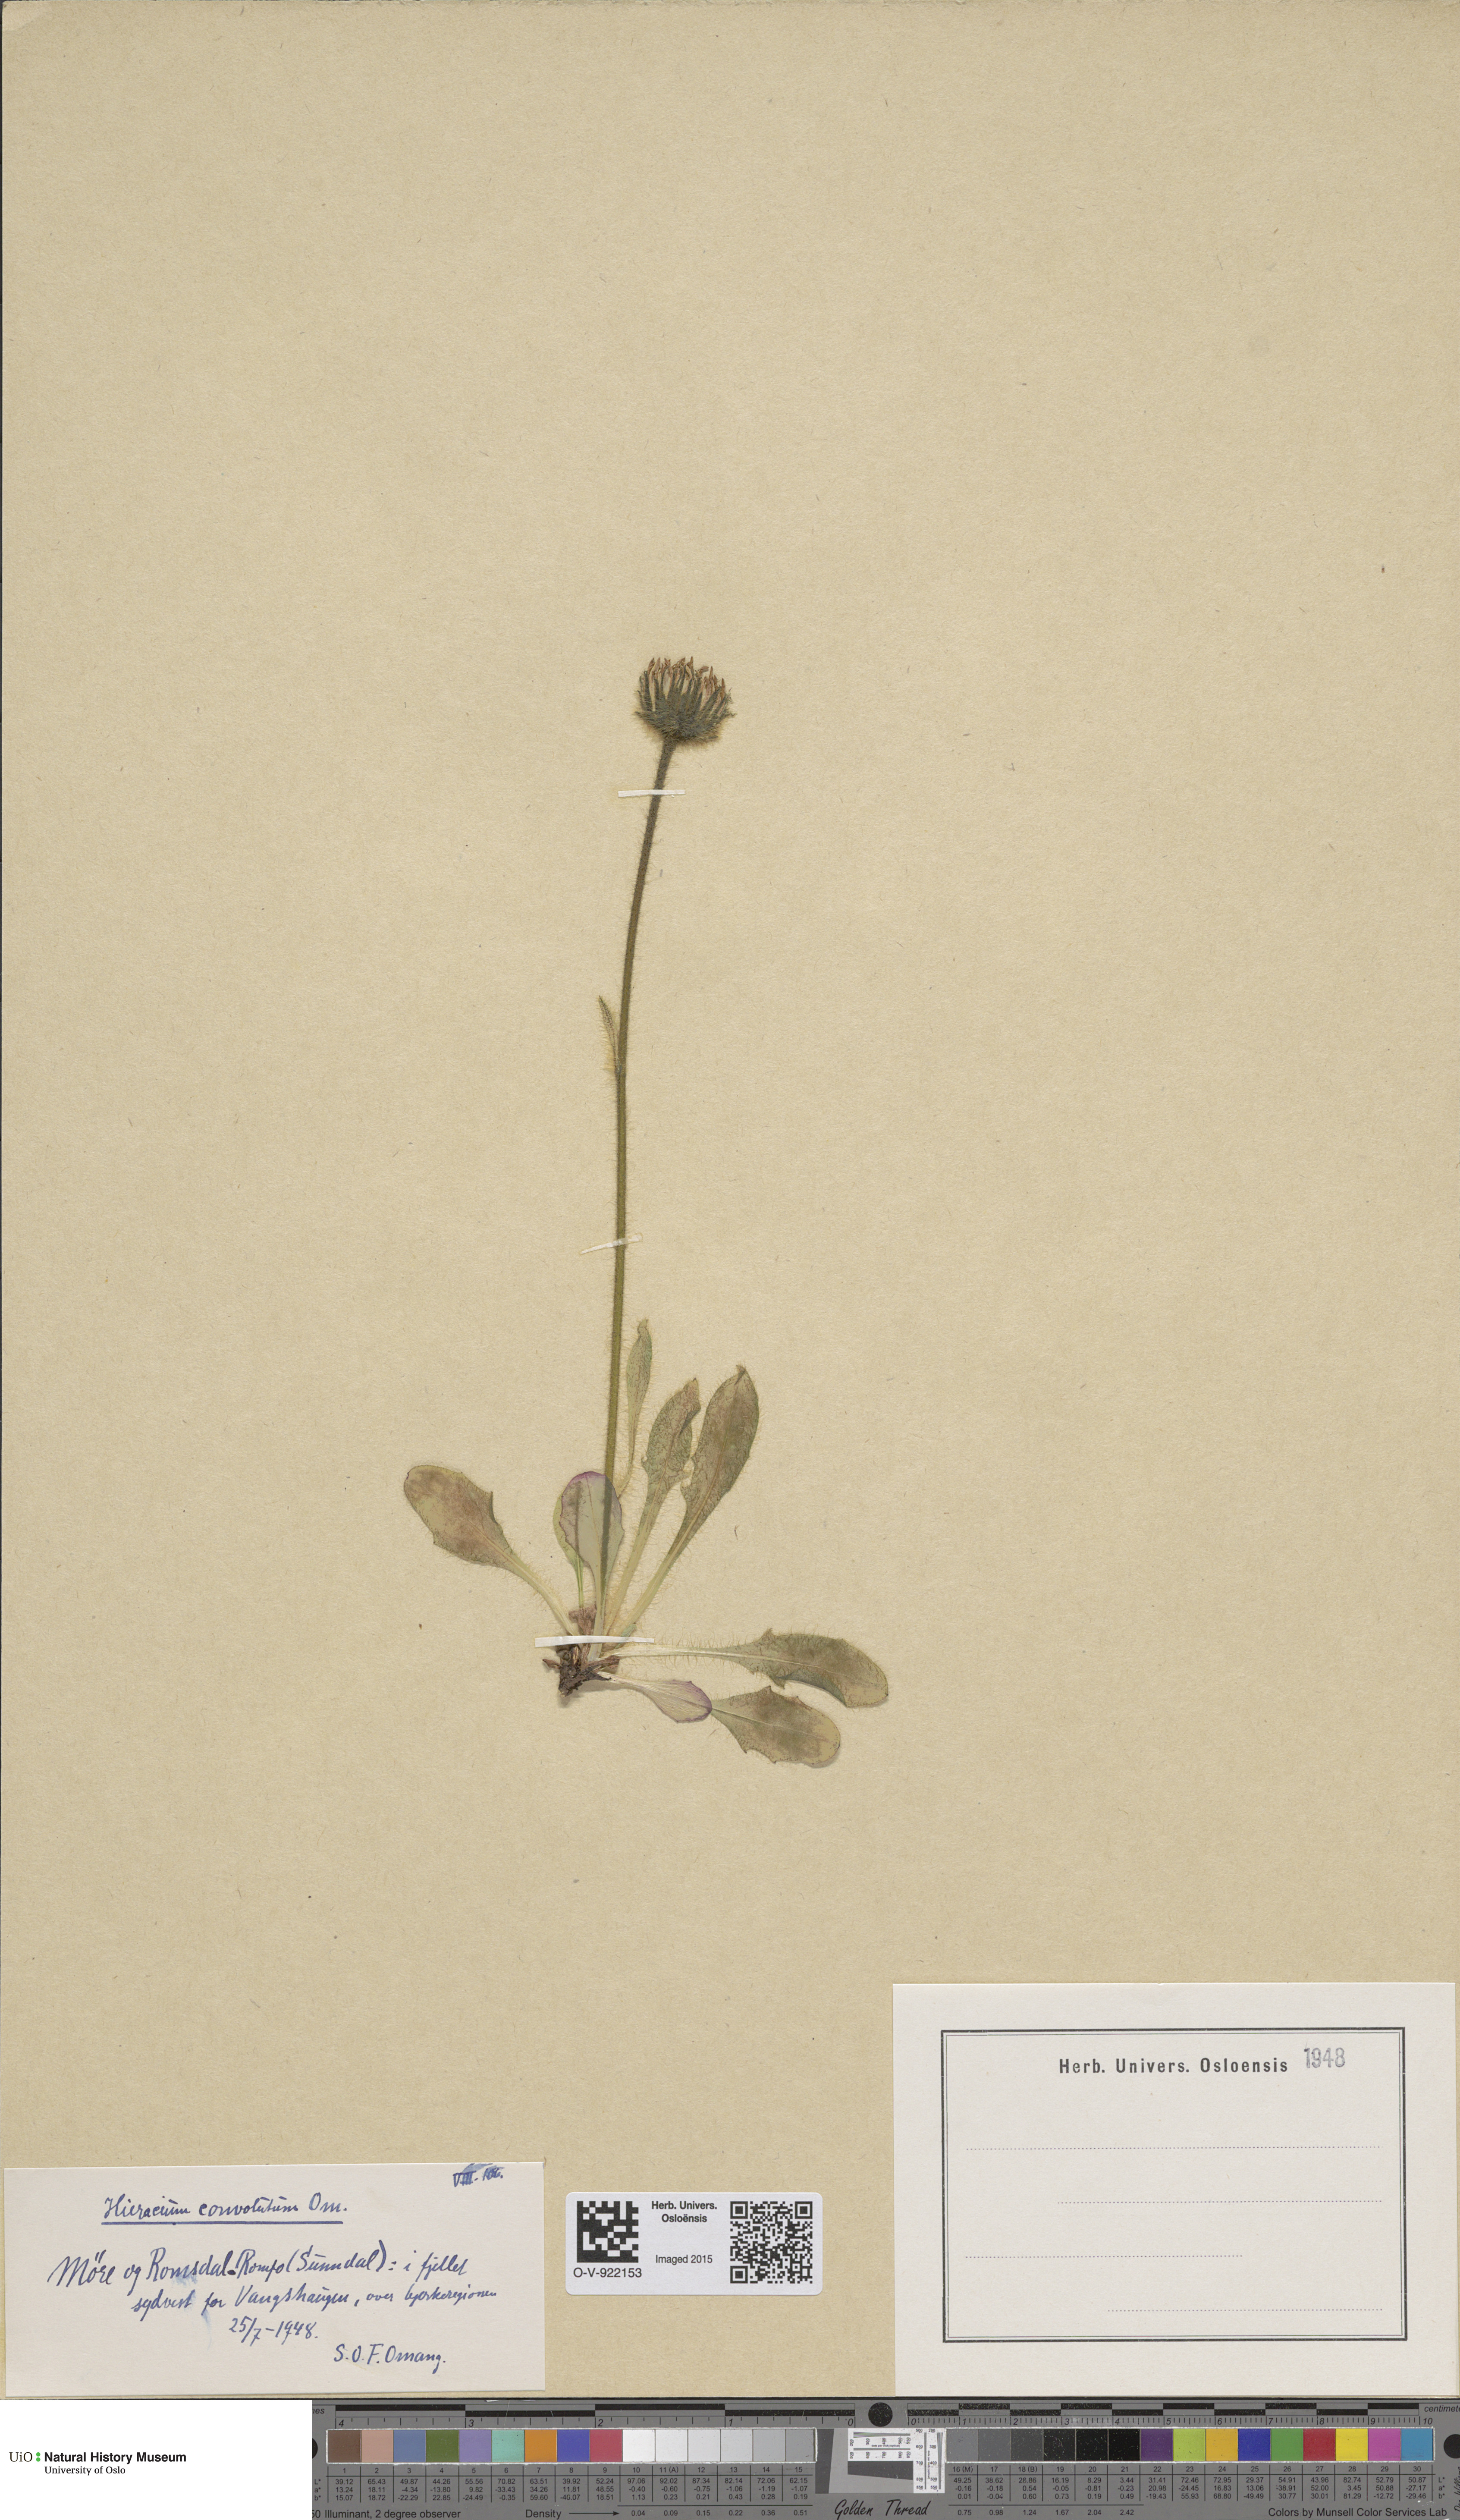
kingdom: Plantae
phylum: Tracheophyta
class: Magnoliopsida
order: Asterales
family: Asteraceae
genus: Hieracium
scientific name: Hieracium alpinum
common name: Alpine hawkweed
